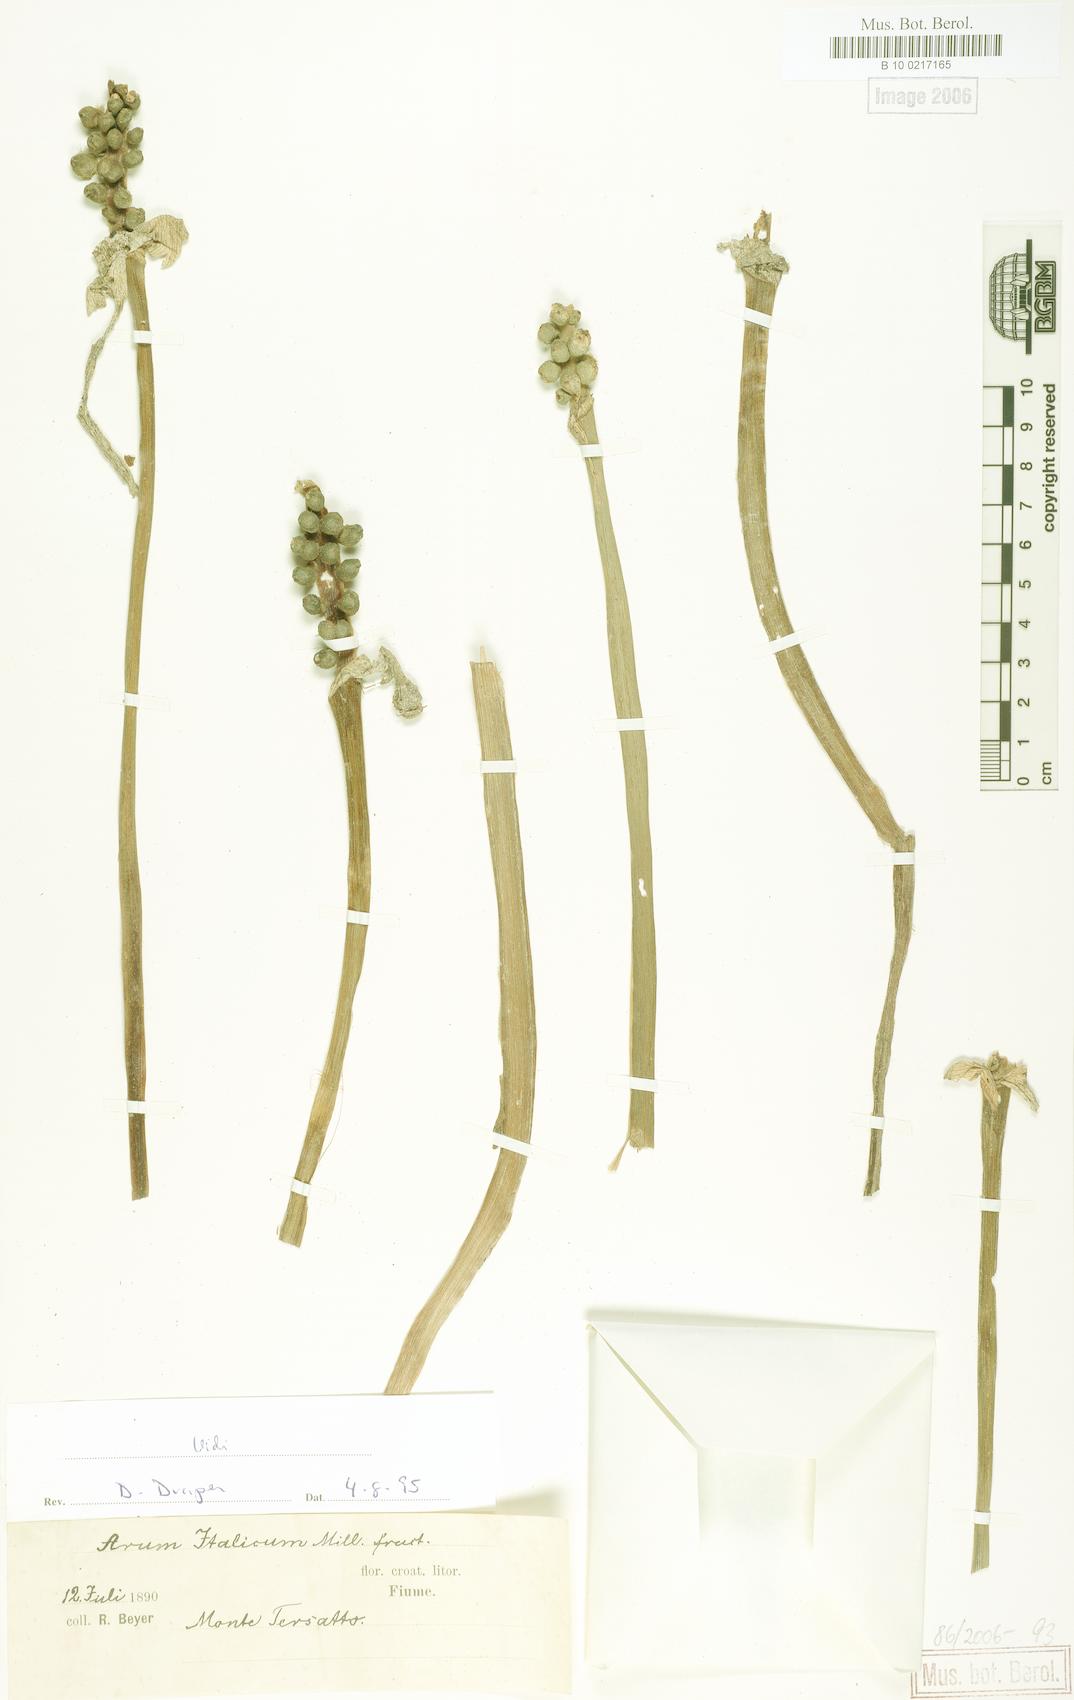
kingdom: Plantae
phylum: Tracheophyta
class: Liliopsida
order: Alismatales
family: Araceae
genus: Arum
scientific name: Arum italicum
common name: Italian lords-and-ladies
